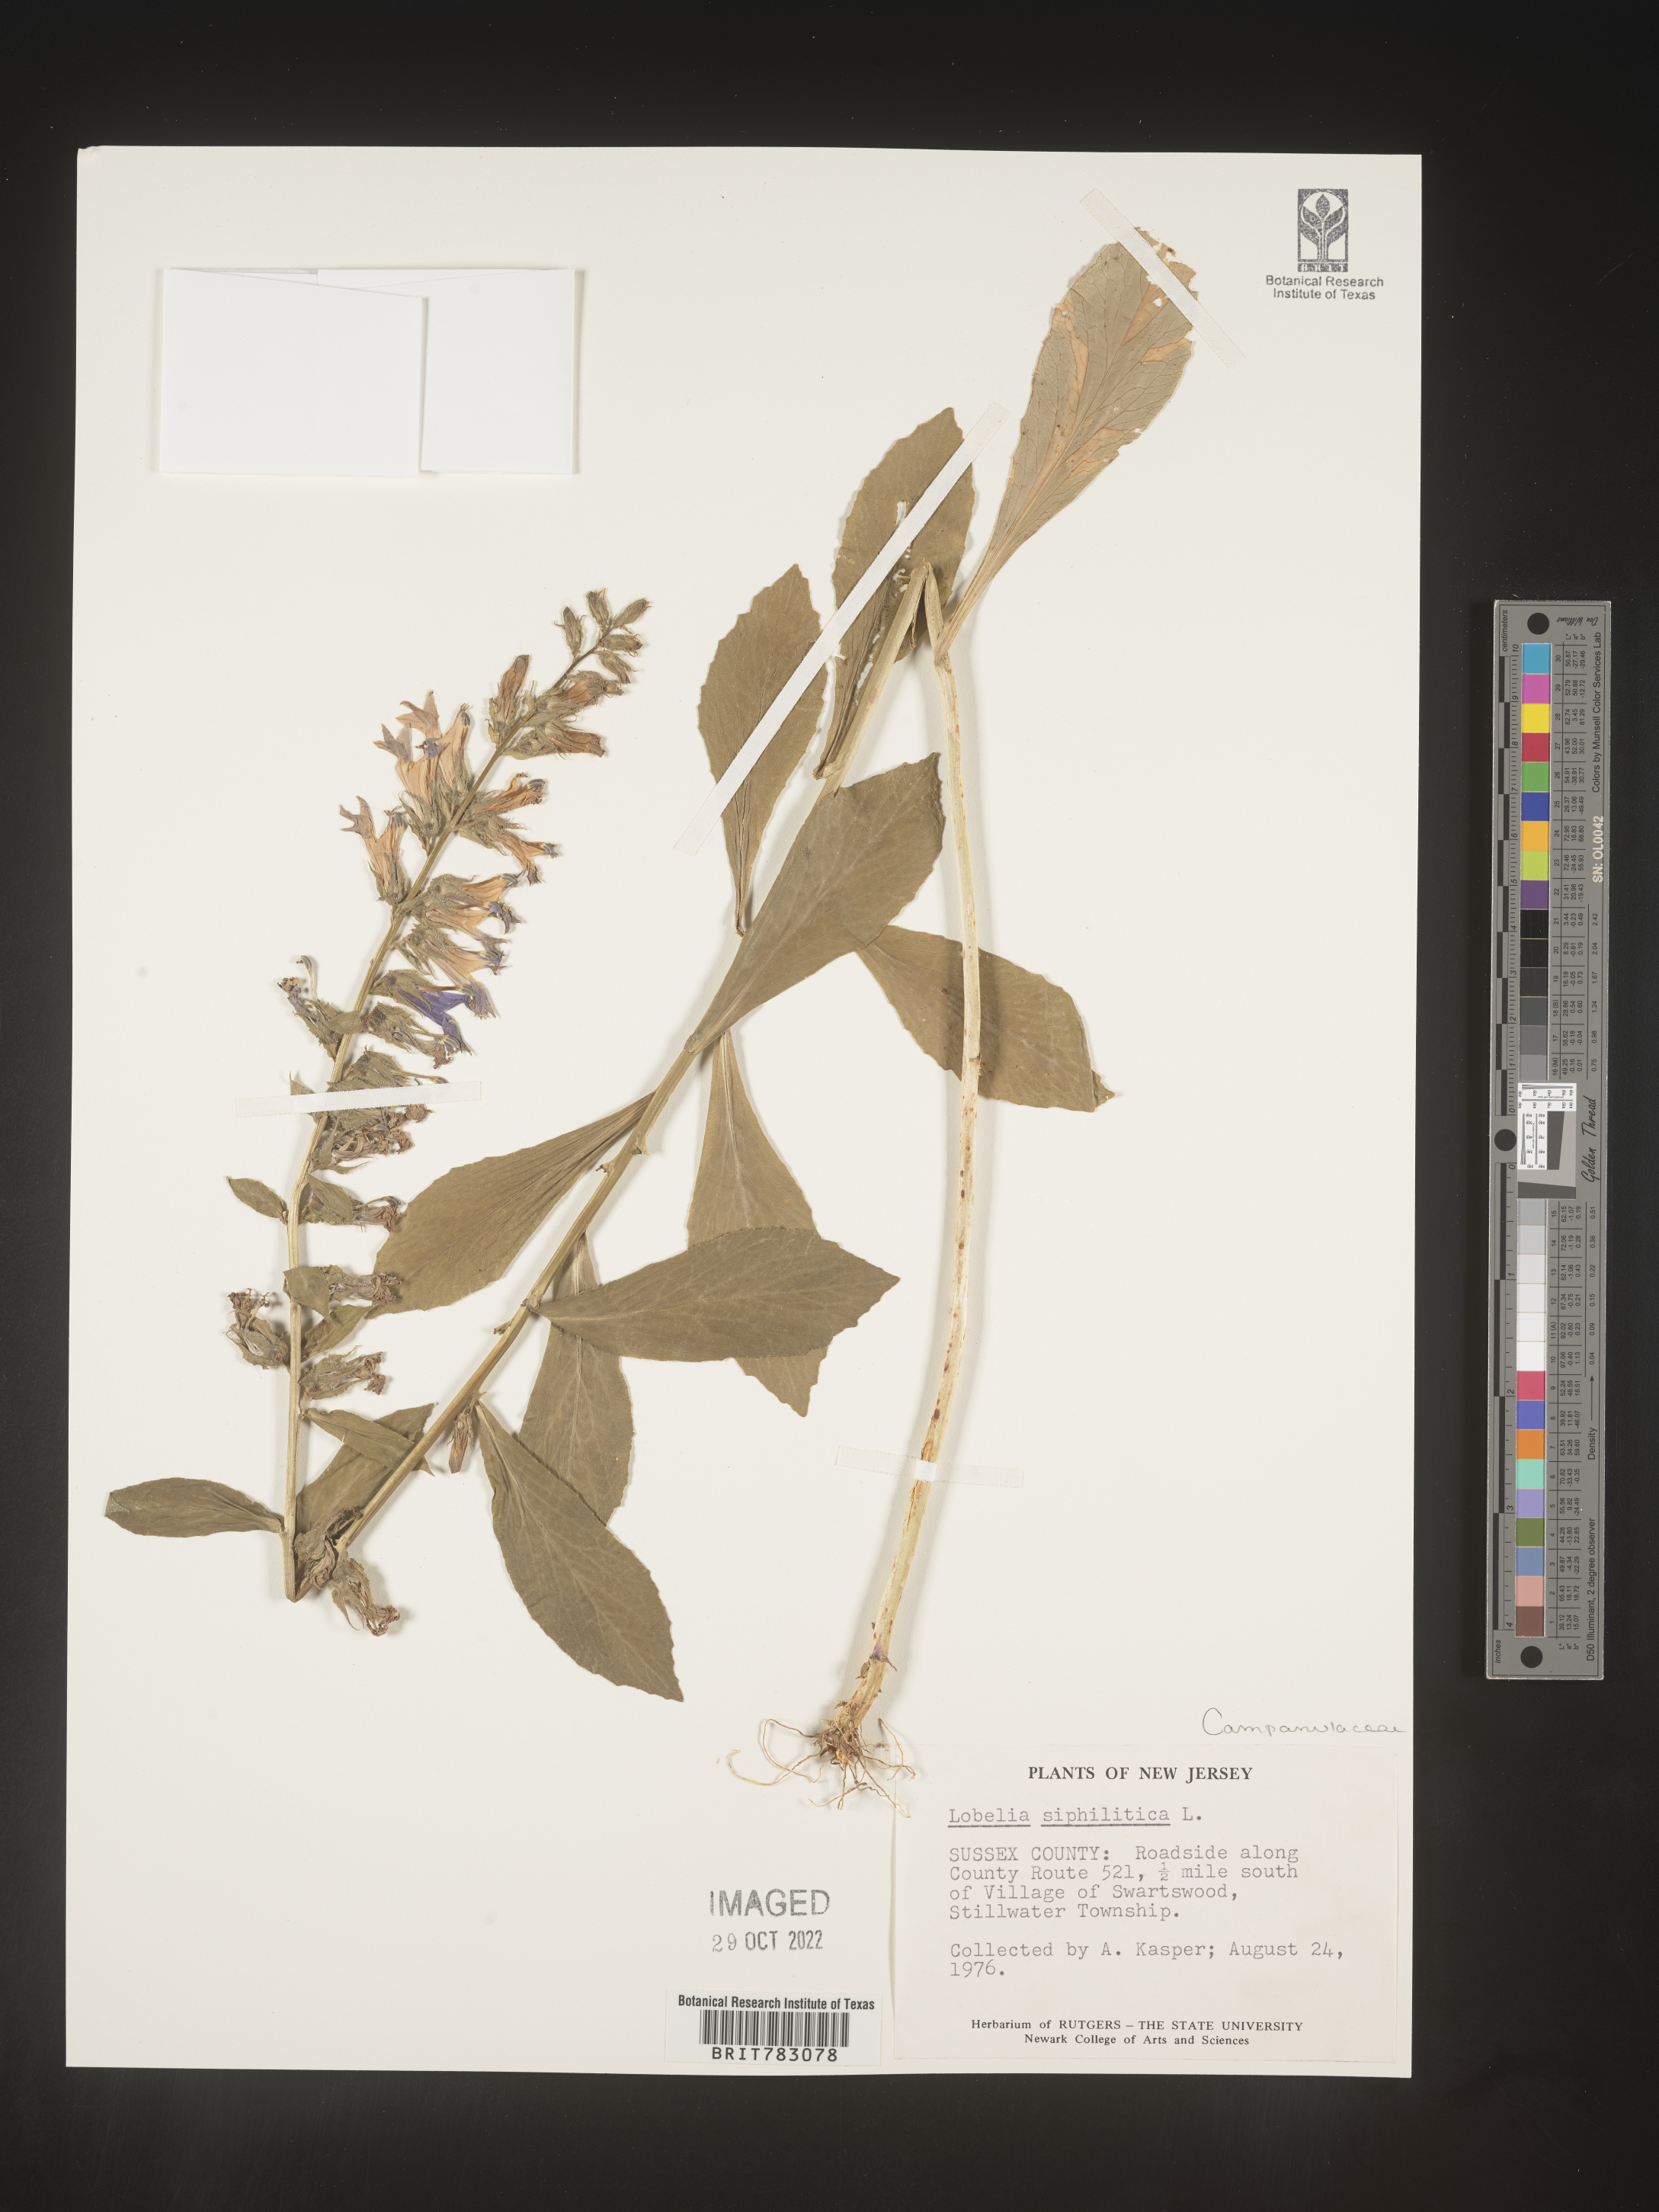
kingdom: Plantae
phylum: Tracheophyta
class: Magnoliopsida
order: Asterales
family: Campanulaceae
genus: Lobelia
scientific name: Lobelia siphilitica
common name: Great lobelia
